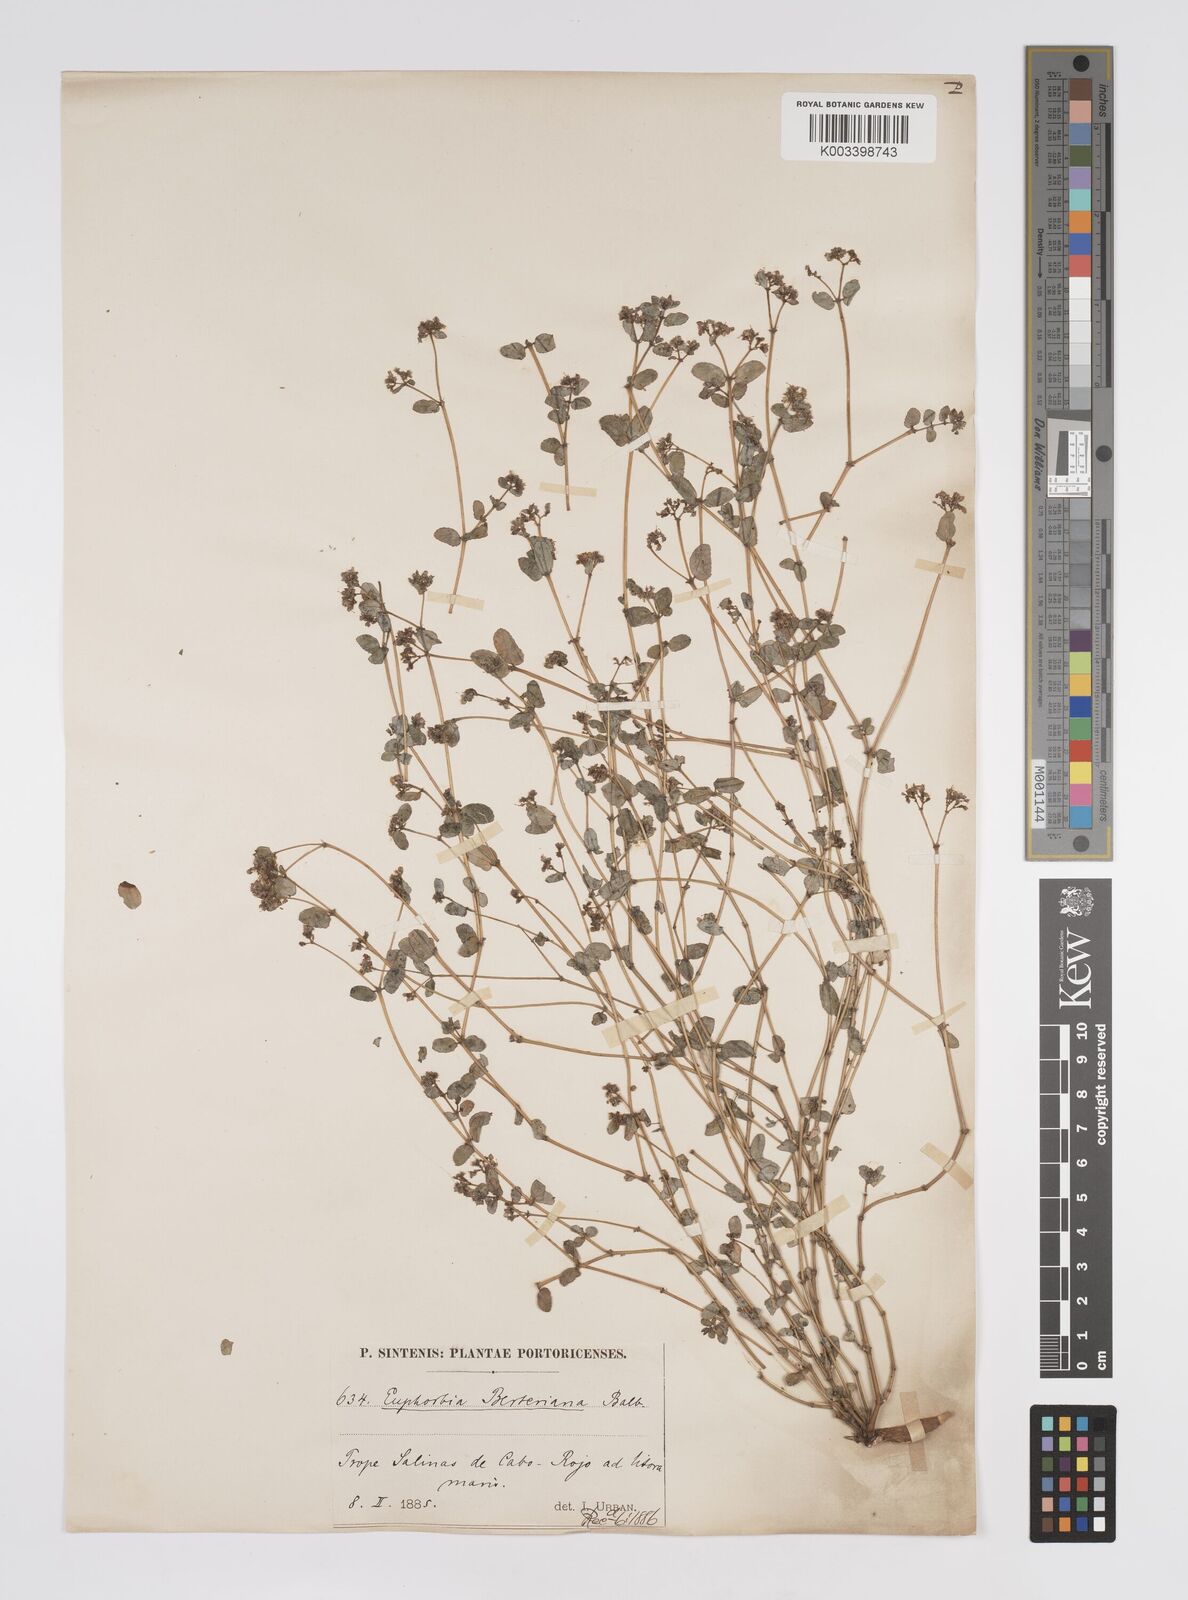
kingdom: Plantae
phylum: Tracheophyta
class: Magnoliopsida
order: Malpighiales
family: Euphorbiaceae
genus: Euphorbia
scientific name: Euphorbia berteroana
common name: Bertero's sandmat
